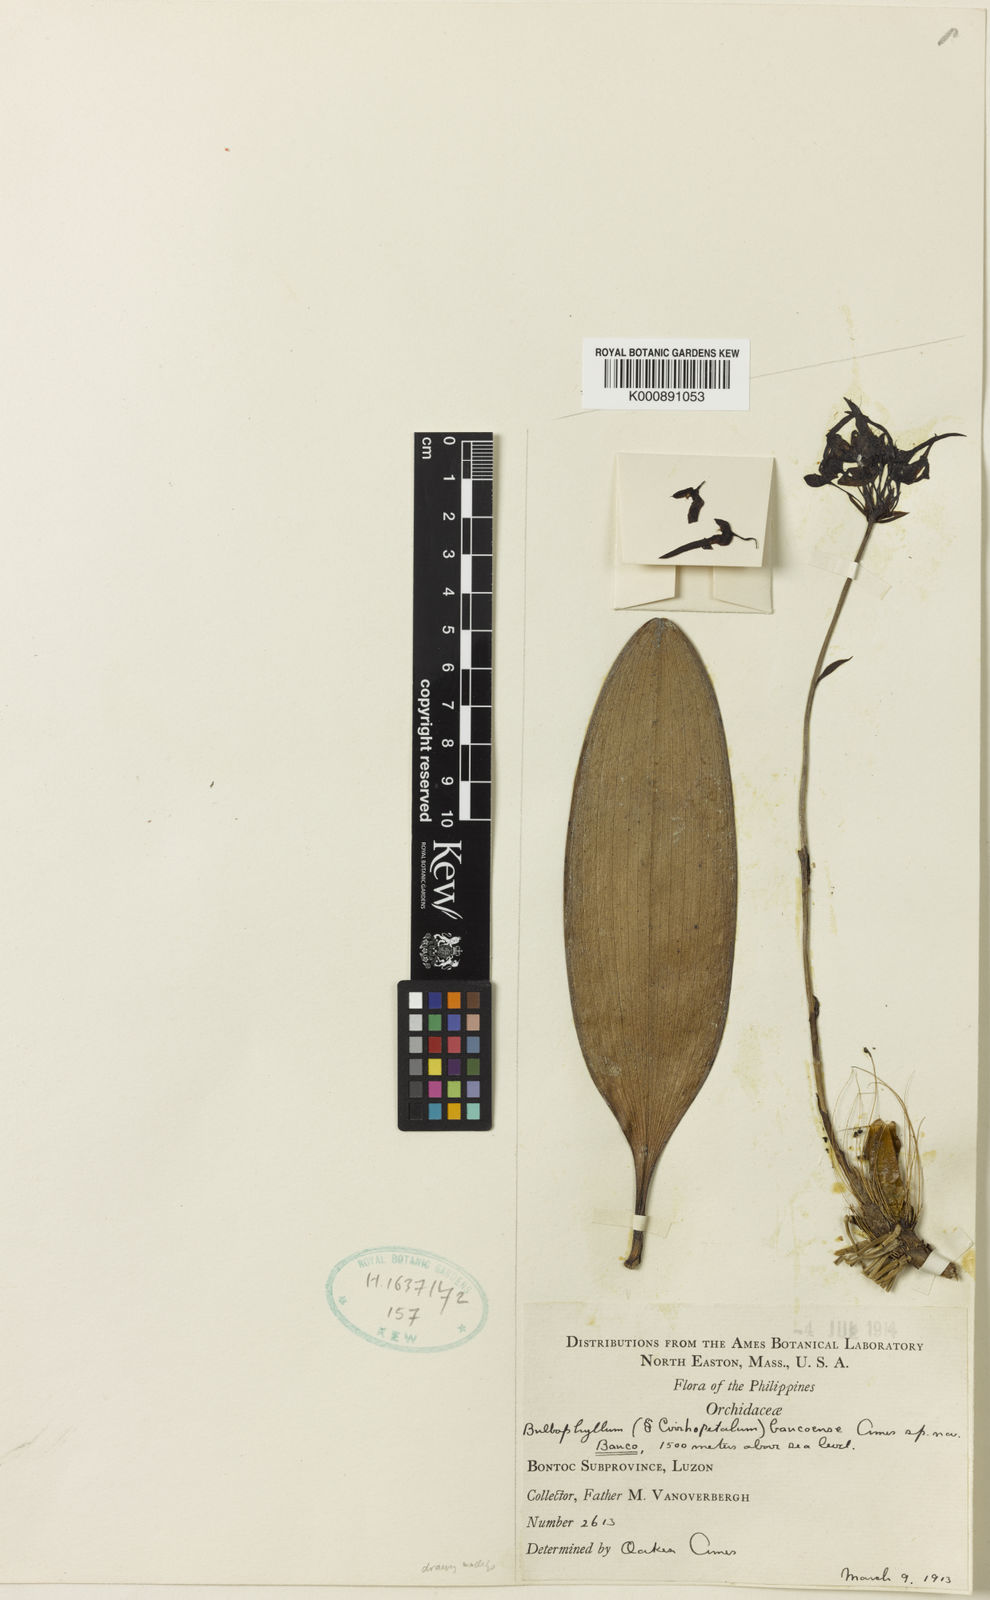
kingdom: Plantae
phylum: Tracheophyta
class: Liliopsida
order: Asparagales
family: Orchidaceae
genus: Bulbophyllum
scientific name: Bulbophyllum
